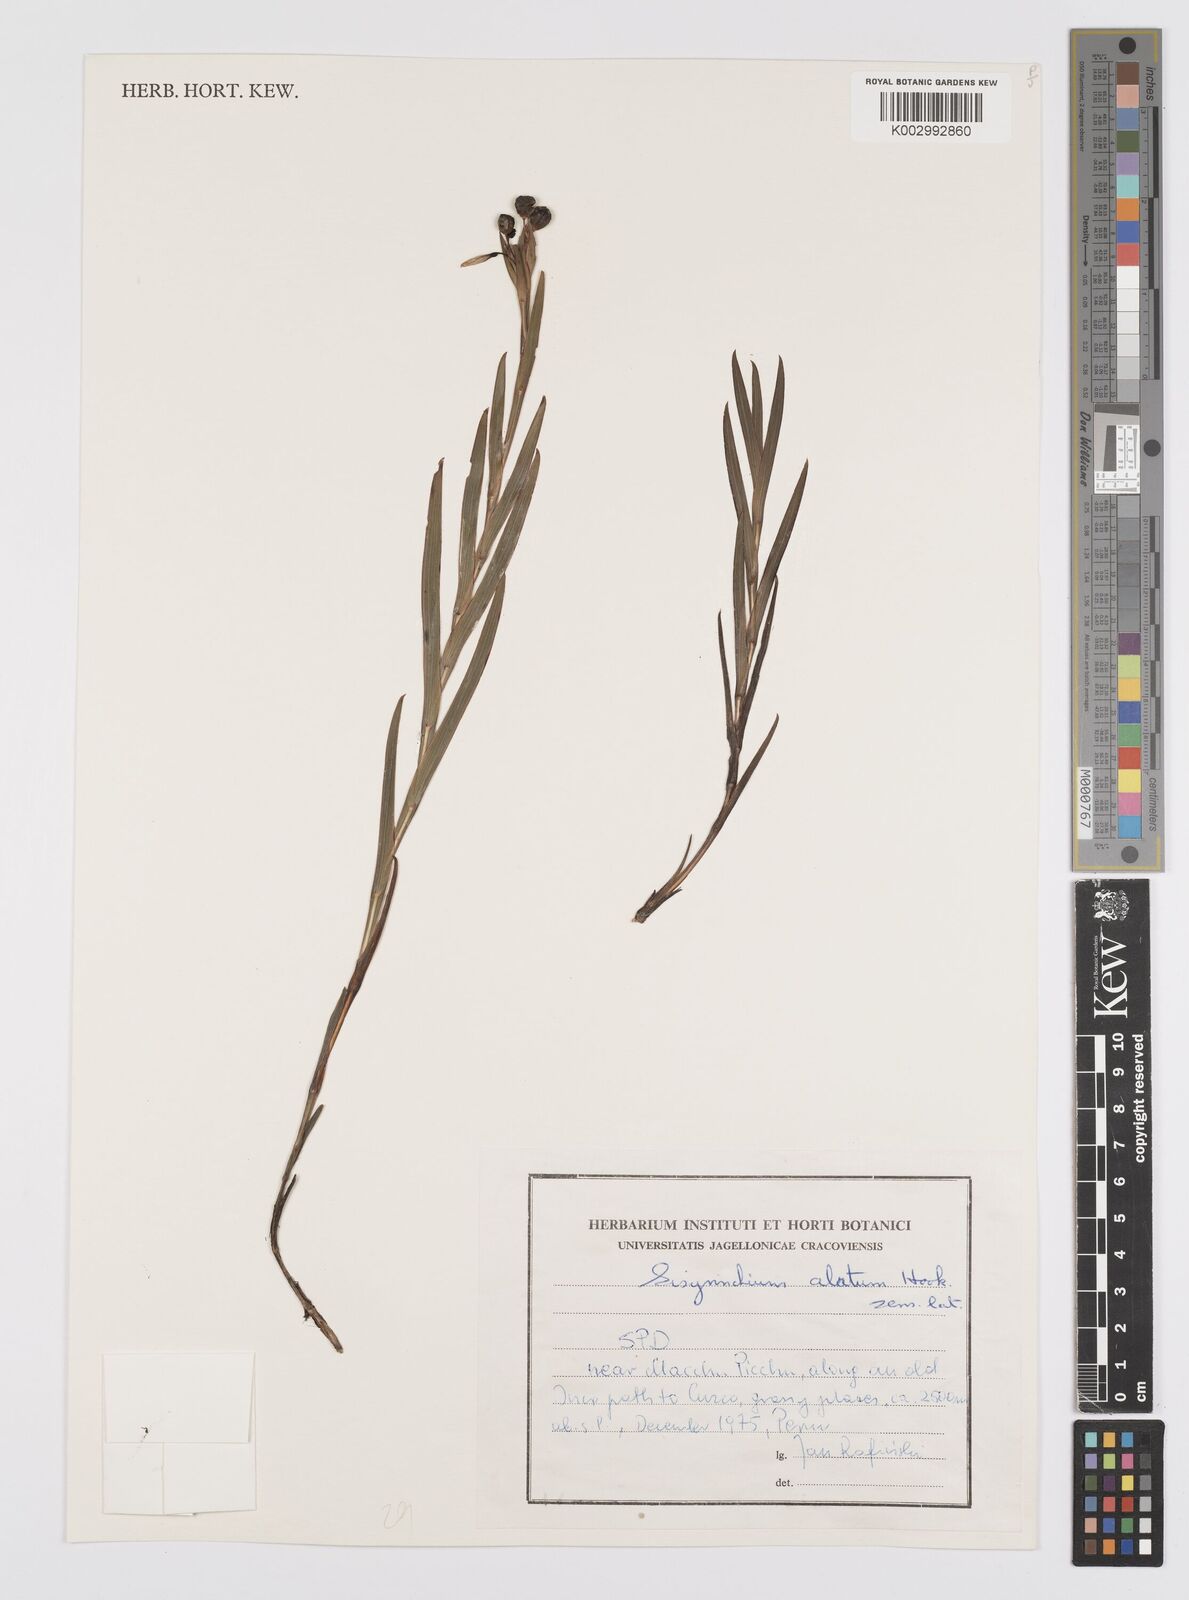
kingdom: Plantae
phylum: Tracheophyta
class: Liliopsida
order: Asparagales
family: Iridaceae
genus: Sisyrinchium
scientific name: Sisyrinchium vaginatum
